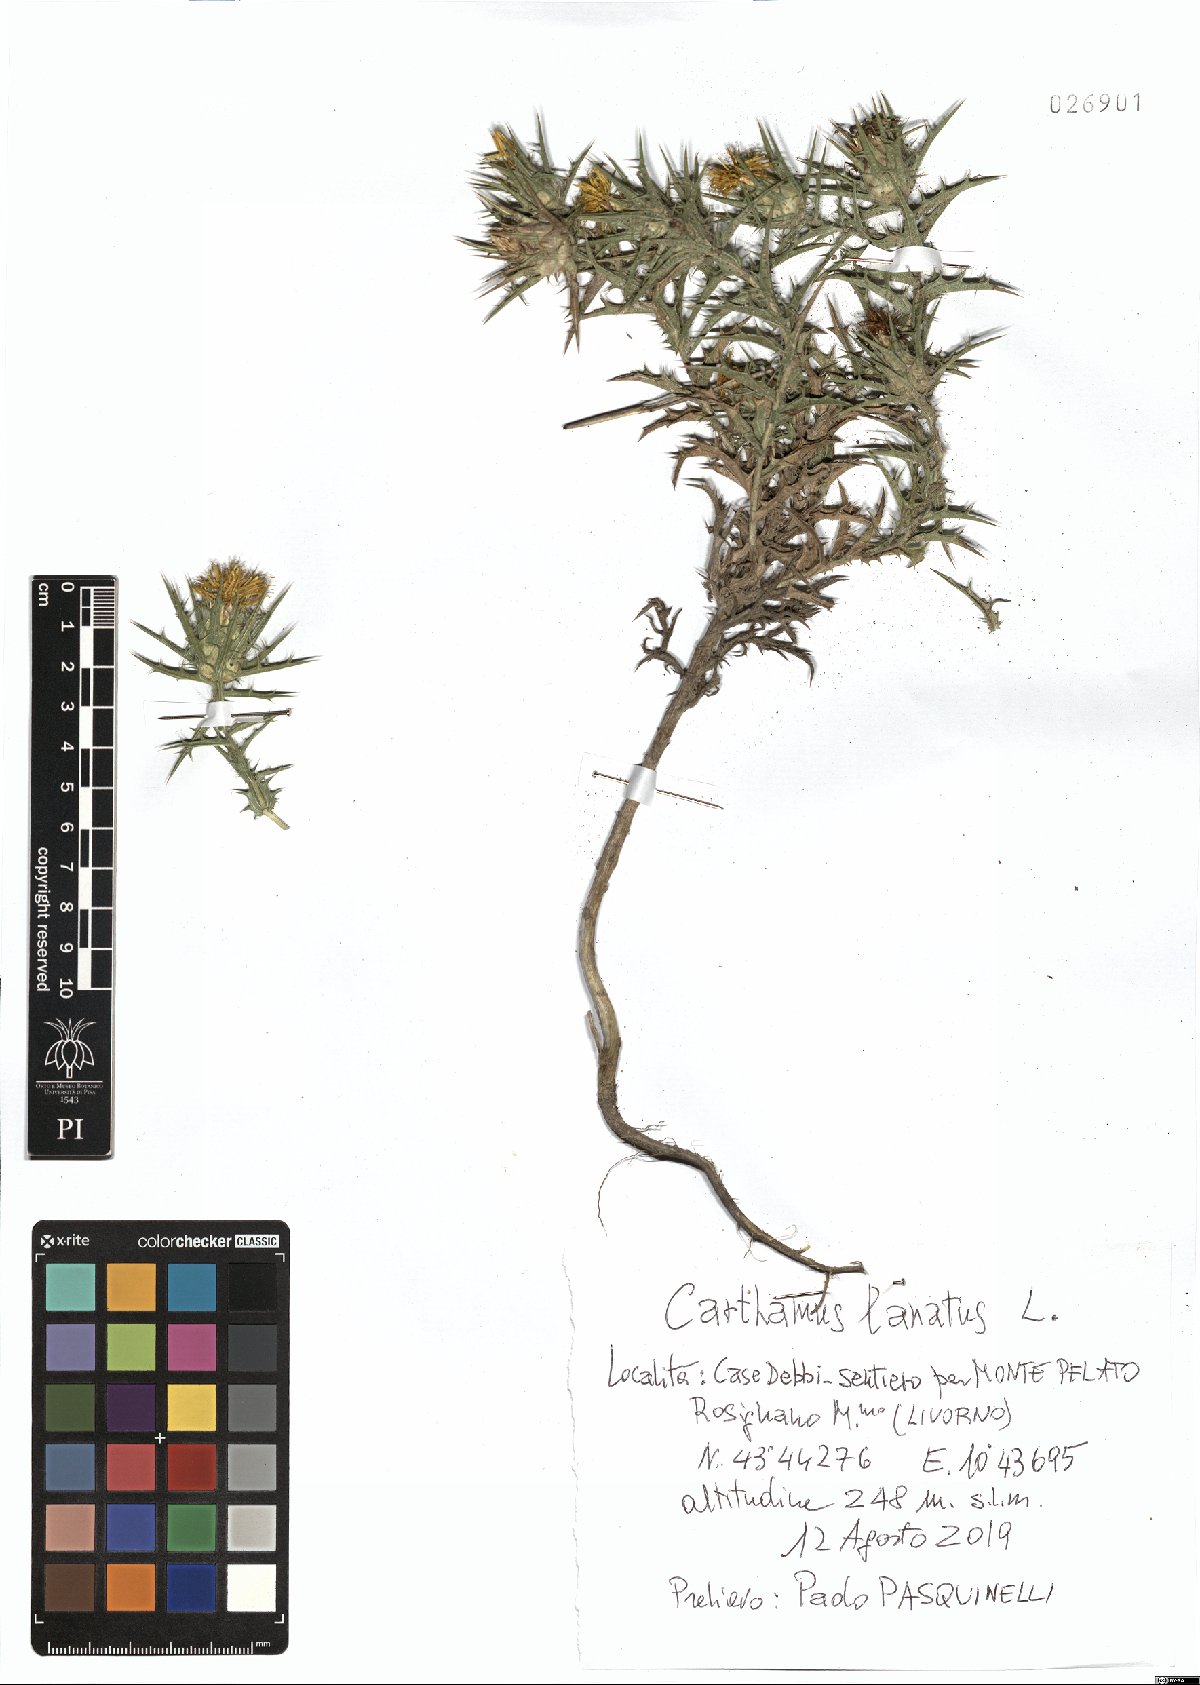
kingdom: Plantae
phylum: Tracheophyta
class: Magnoliopsida
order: Asterales
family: Asteraceae
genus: Carthamus
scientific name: Carthamus lanatus
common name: Downy safflower
